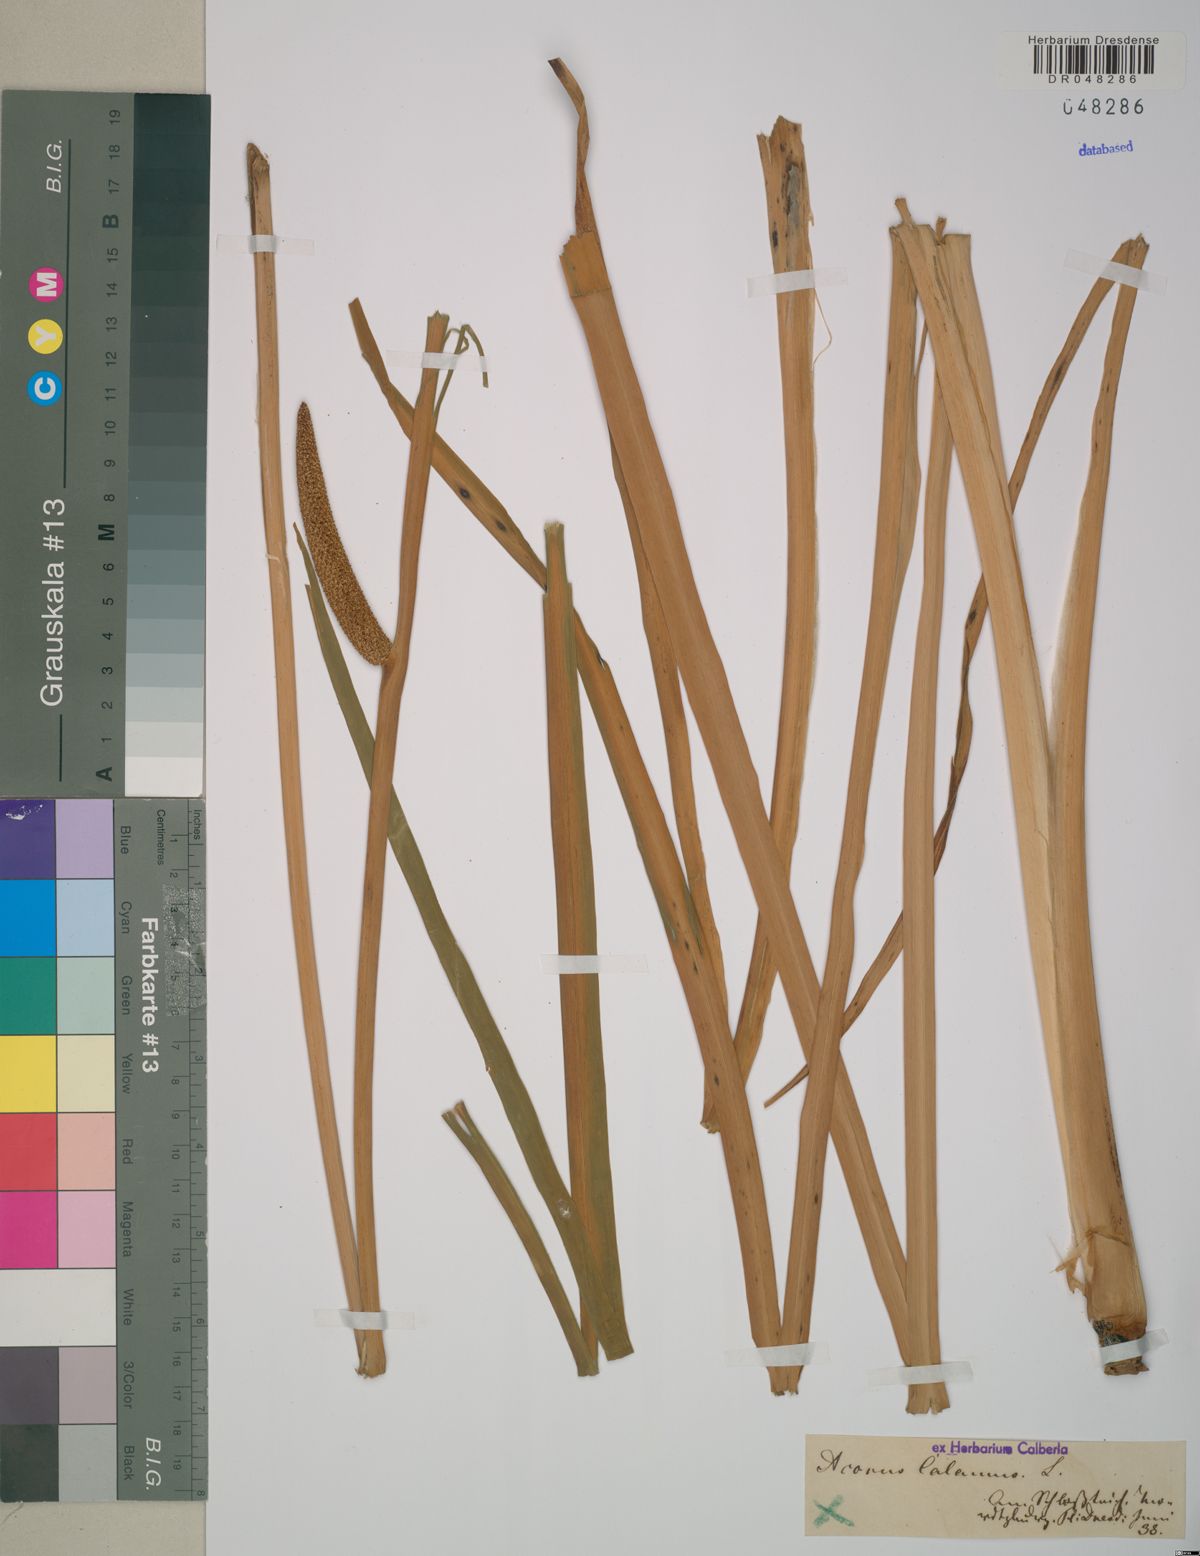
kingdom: Plantae
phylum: Tracheophyta
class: Liliopsida
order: Acorales
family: Acoraceae
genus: Acorus
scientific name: Acorus calamus
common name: Sweet-flag
